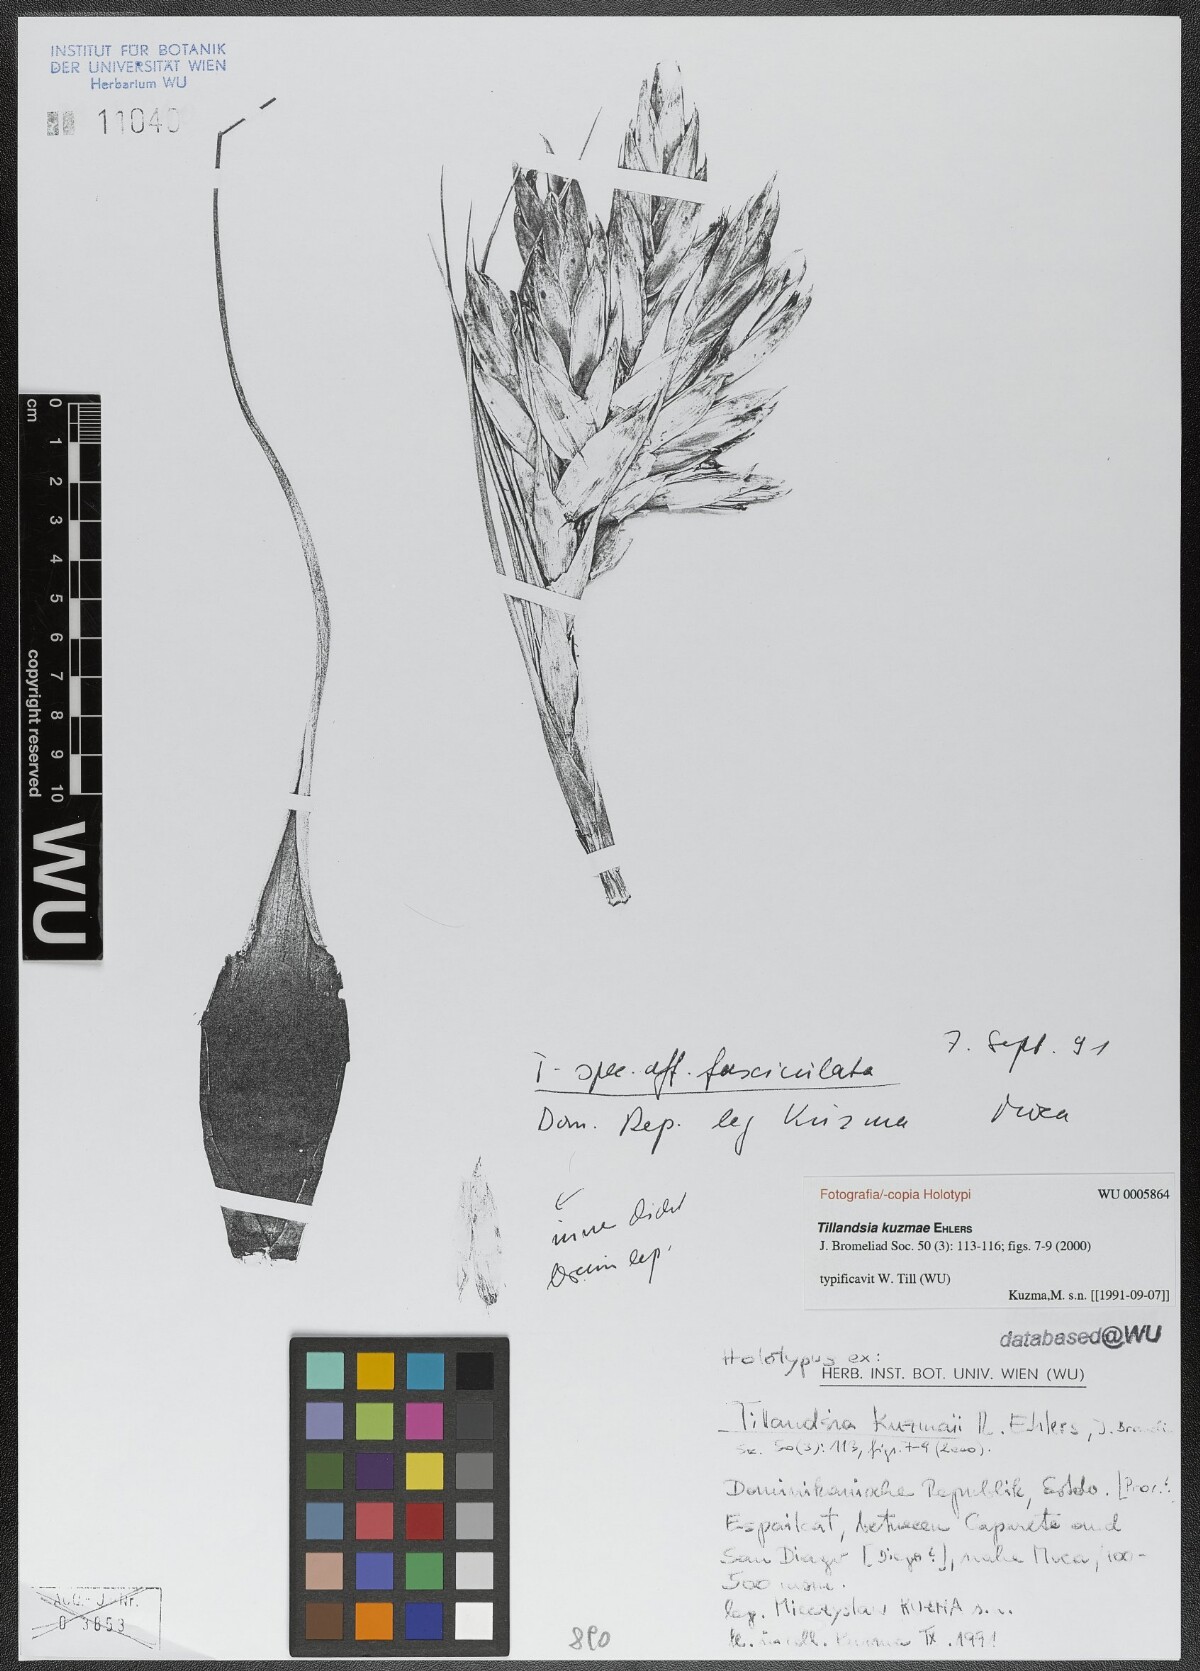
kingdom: Plantae
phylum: Tracheophyta
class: Liliopsida
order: Poales
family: Bromeliaceae
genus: Tillandsia
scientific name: Tillandsia kuzmae
